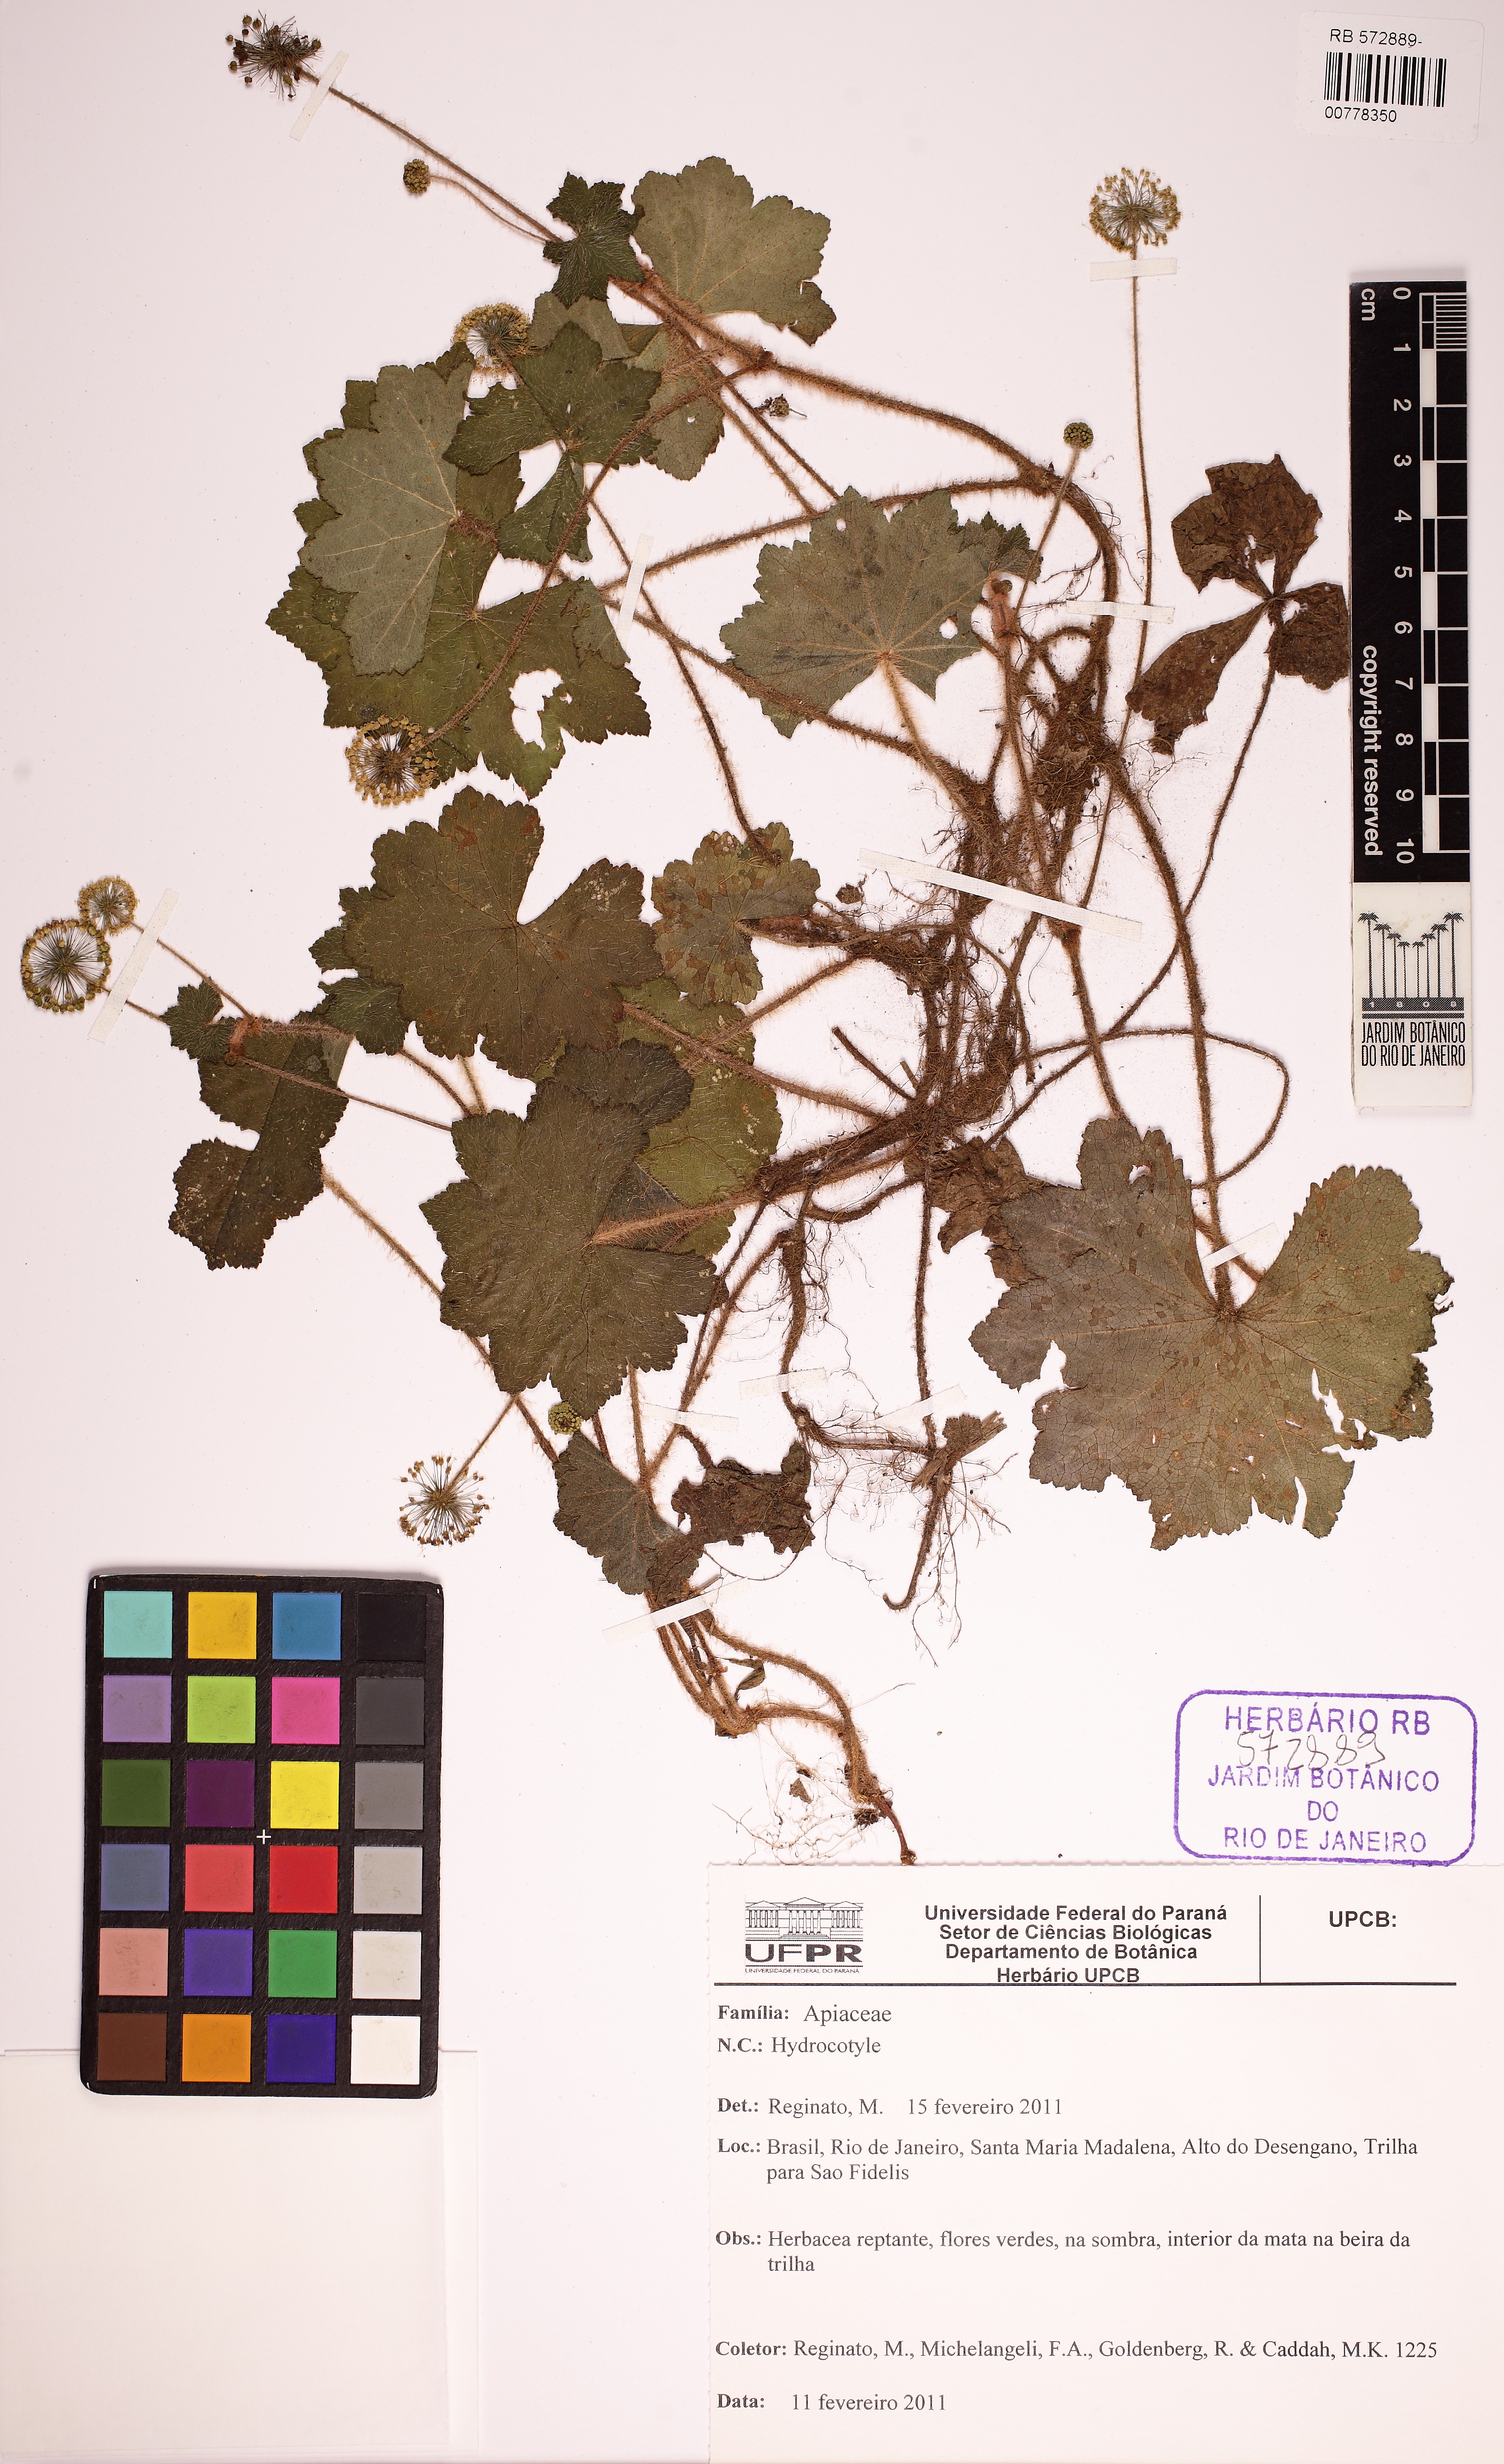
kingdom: Plantae
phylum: Tracheophyta
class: Magnoliopsida
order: Apiales
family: Apiaceae
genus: Hydrocotile
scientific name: Hydrocotile
